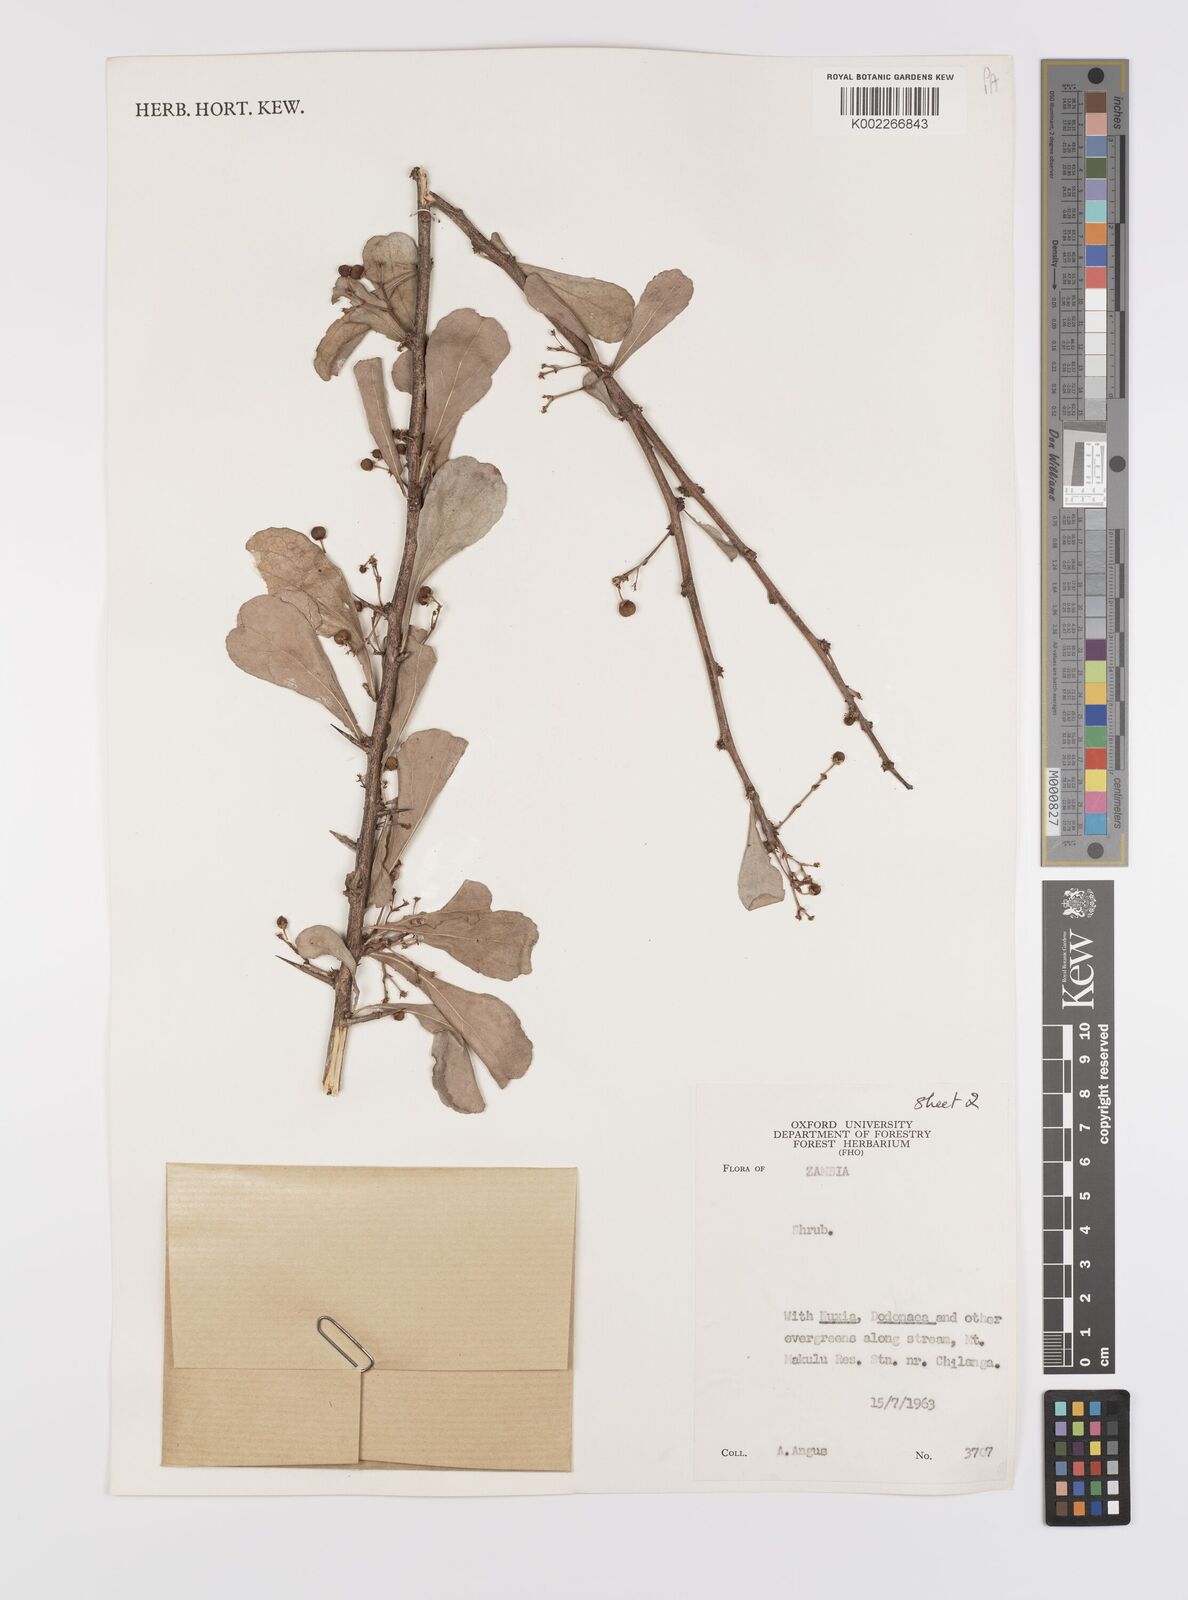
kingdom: Plantae
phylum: Tracheophyta
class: Magnoliopsida
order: Celastrales
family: Celastraceae
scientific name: Celastraceae
